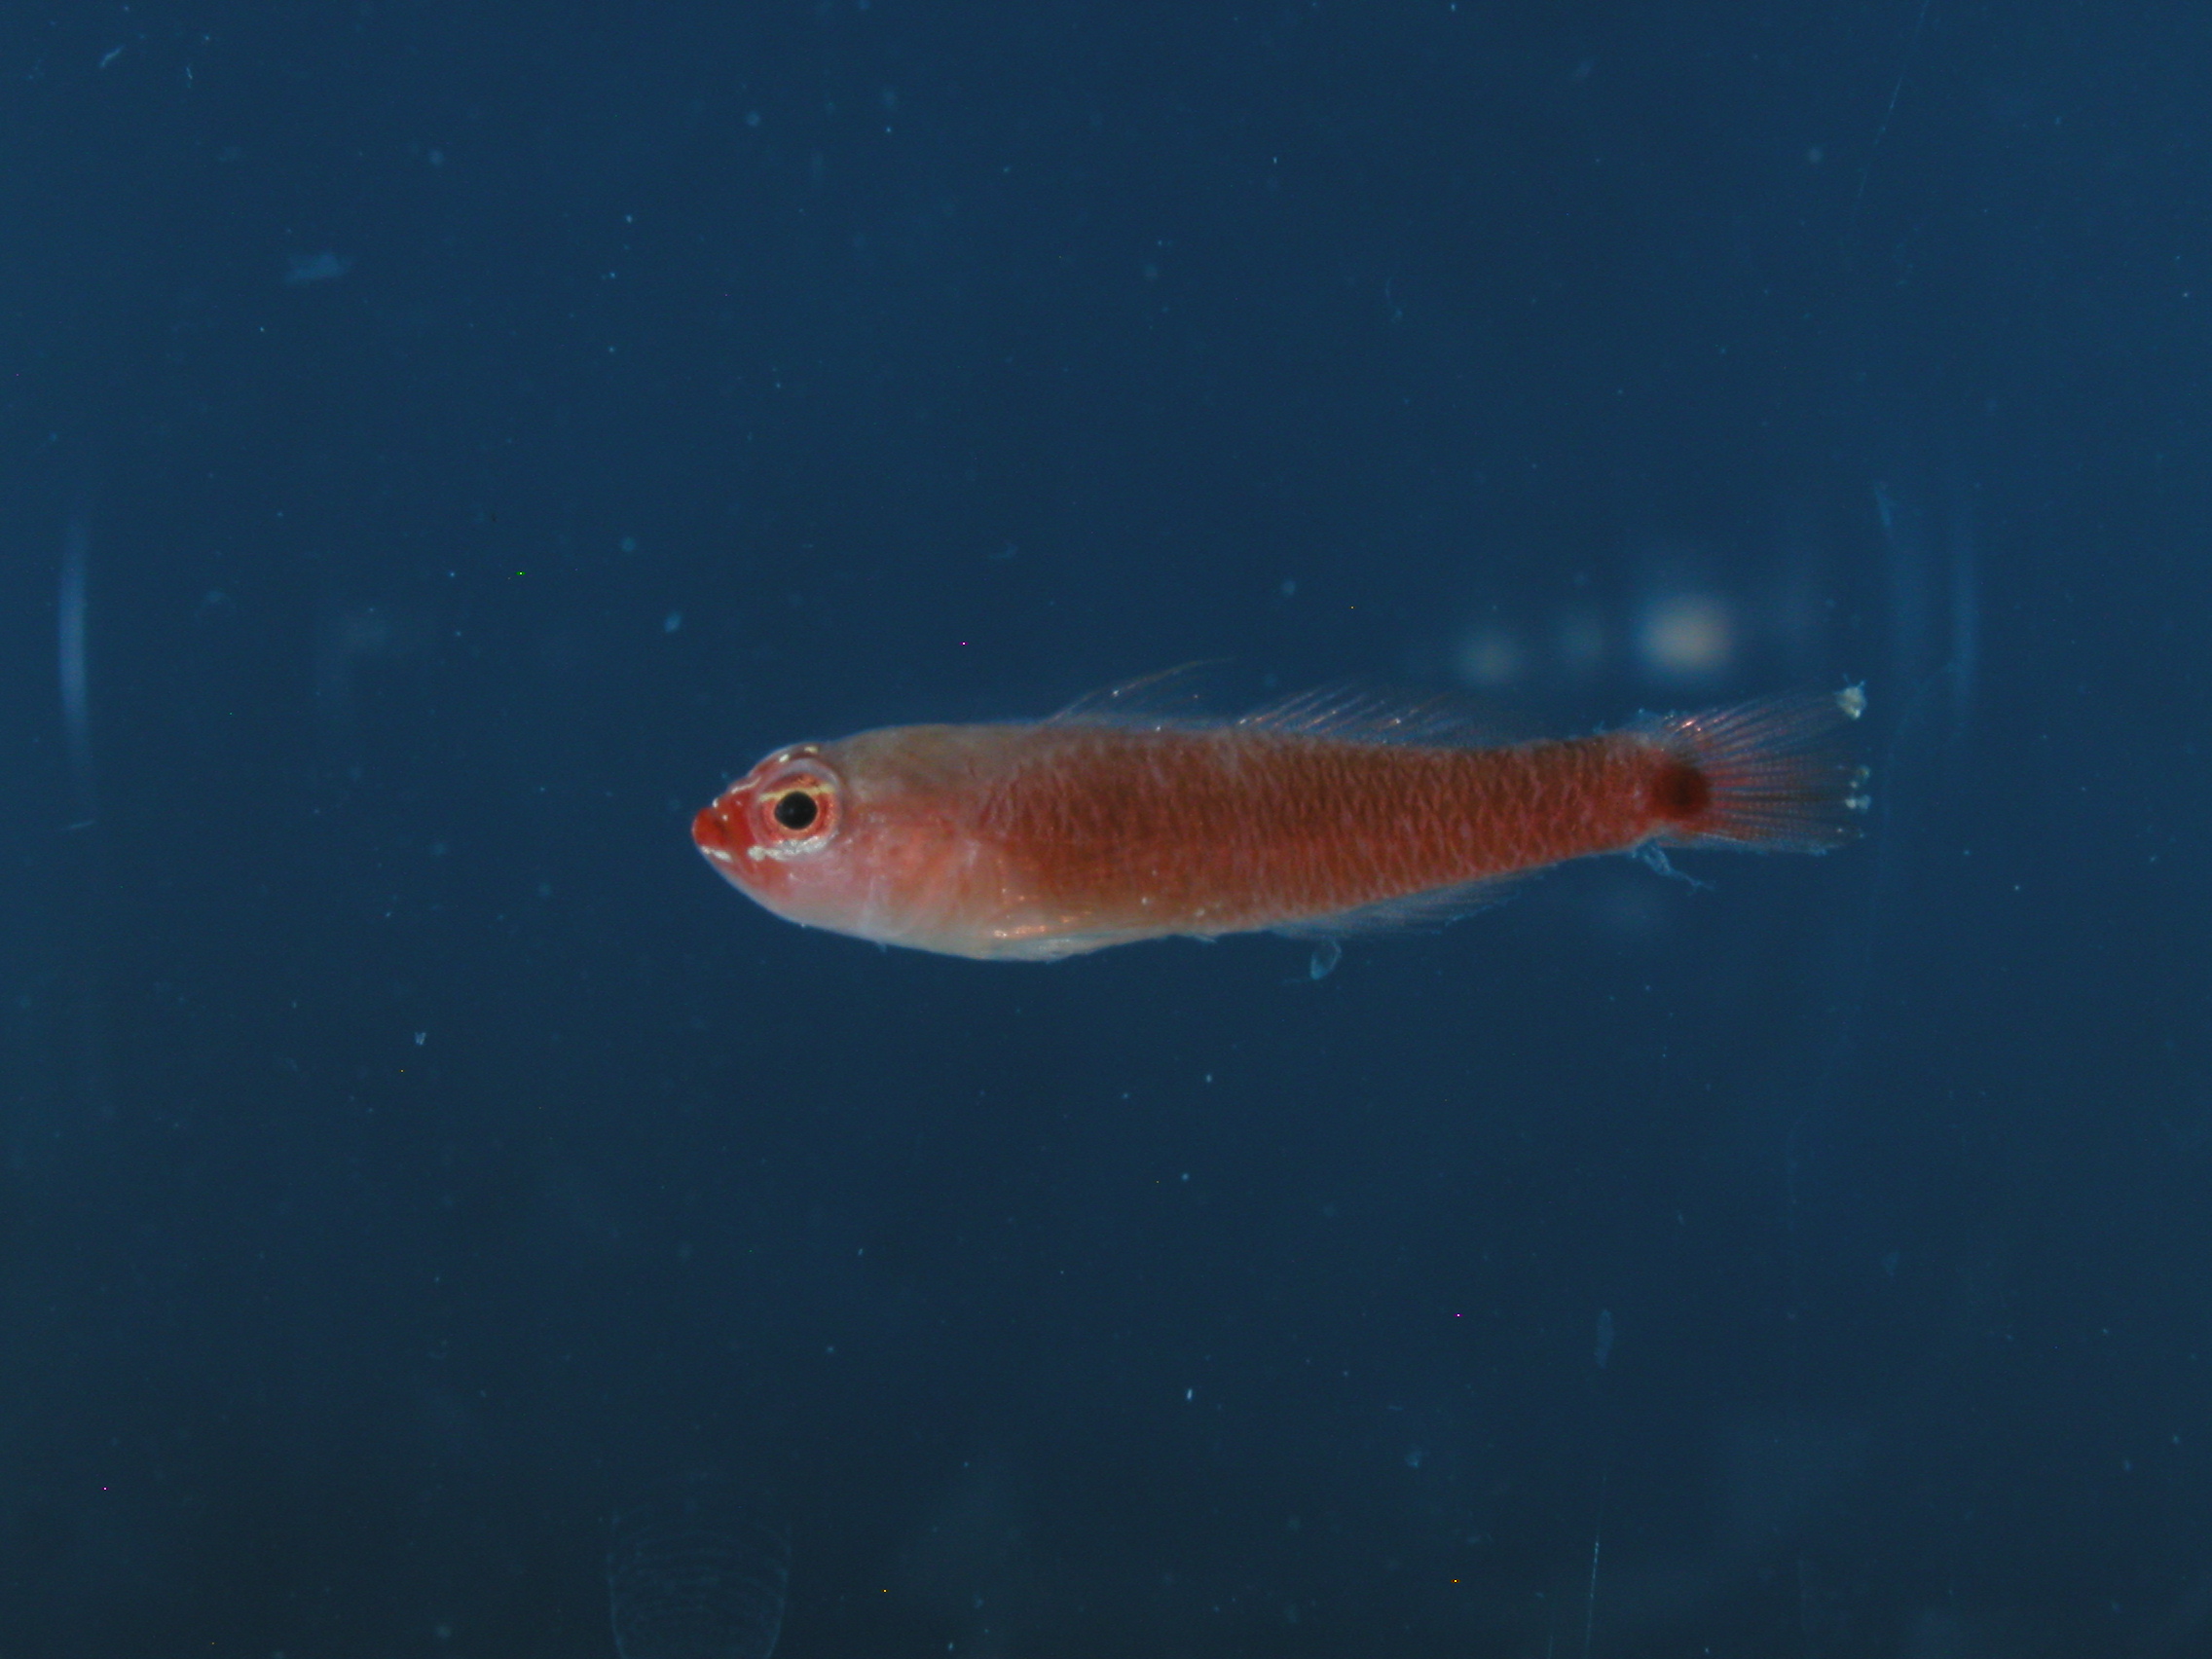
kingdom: Animalia
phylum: Chordata
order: Perciformes
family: Gobiidae
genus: Trimma
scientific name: Trimma dalerocheila
